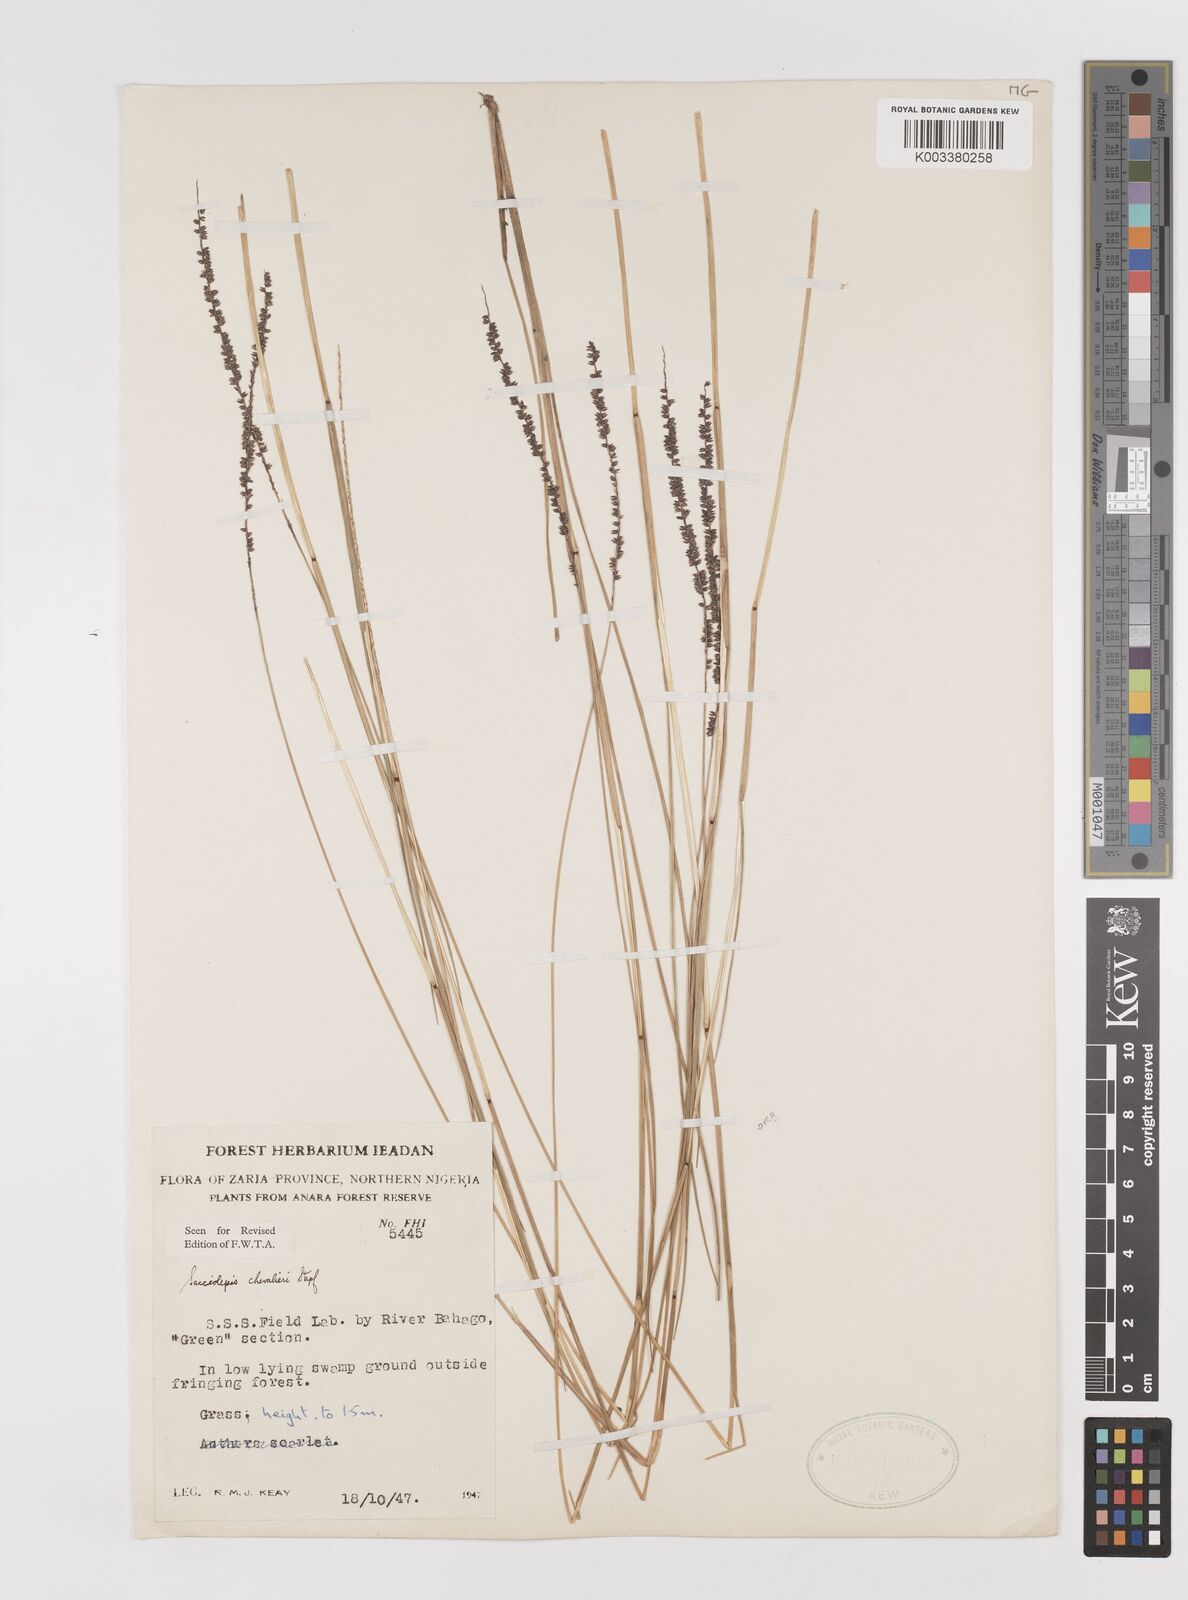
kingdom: Plantae
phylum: Tracheophyta
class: Liliopsida
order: Poales
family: Poaceae
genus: Sacciolepis
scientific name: Sacciolepis chevalieri
